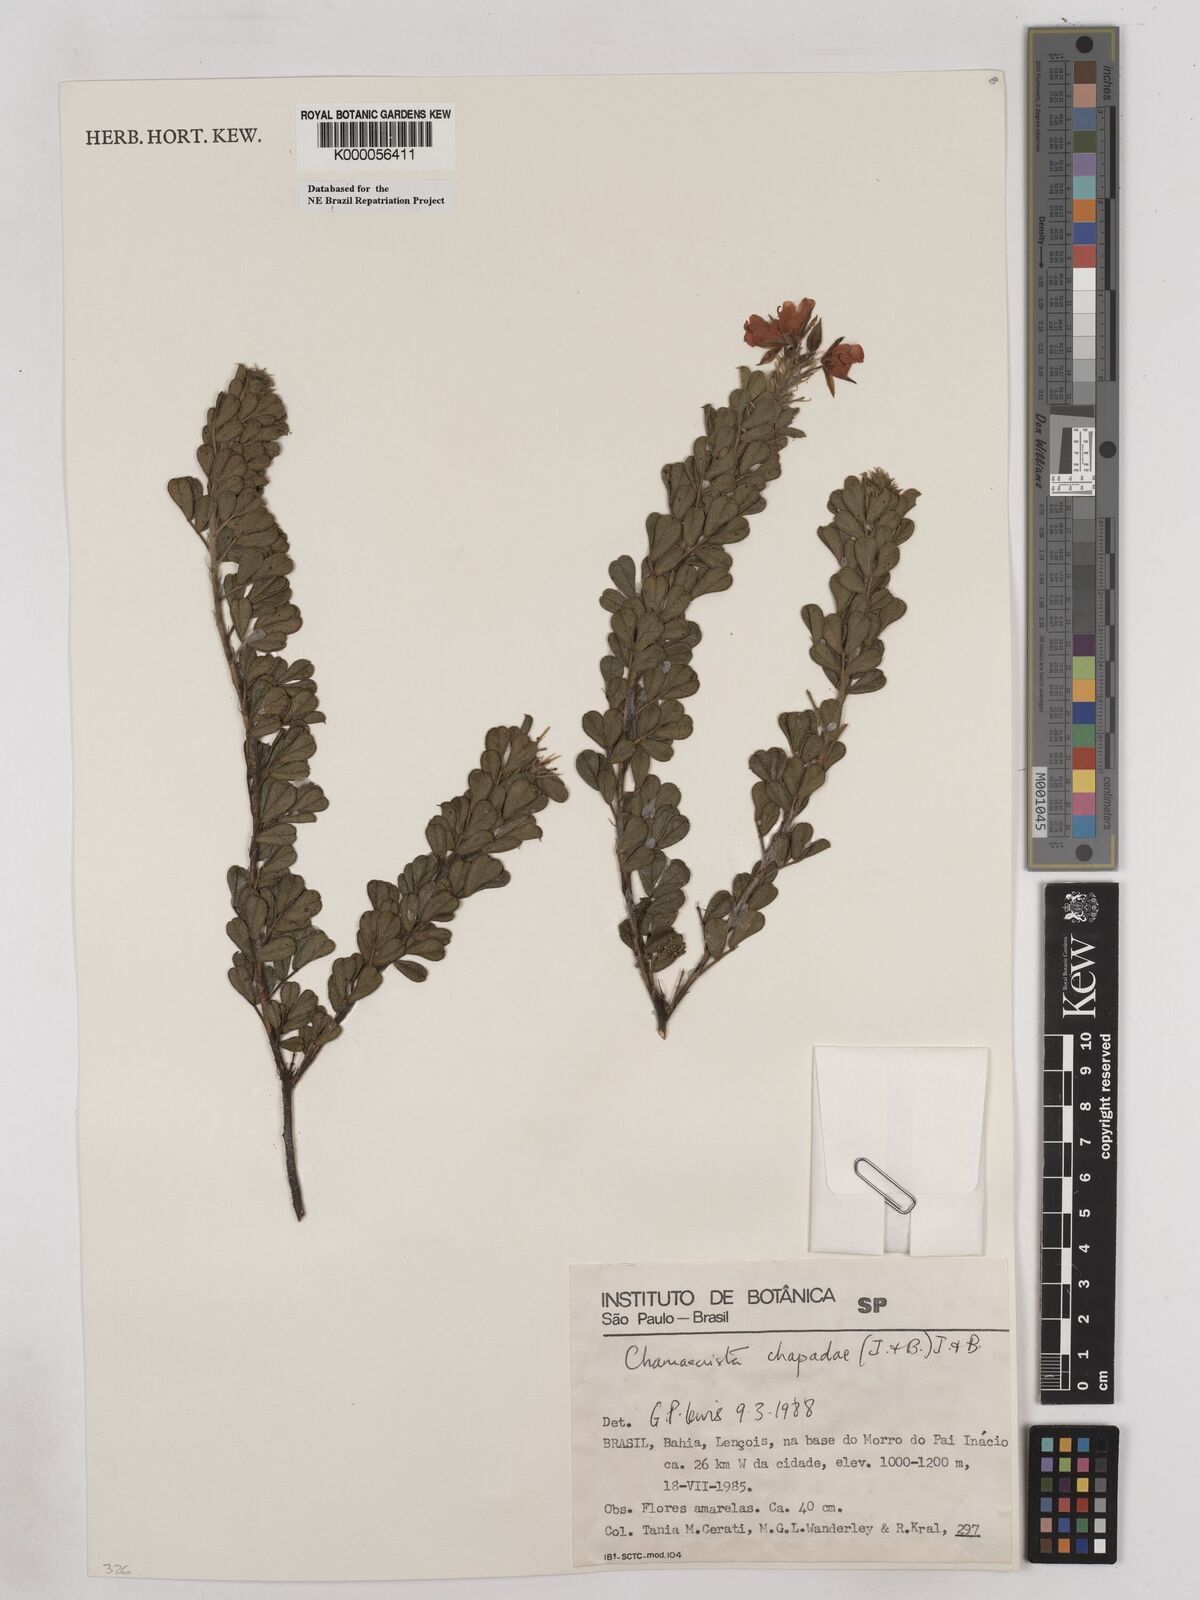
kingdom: Plantae
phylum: Tracheophyta
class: Magnoliopsida
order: Fabales
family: Fabaceae
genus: Chamaecrista
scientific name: Chamaecrista chapadae
